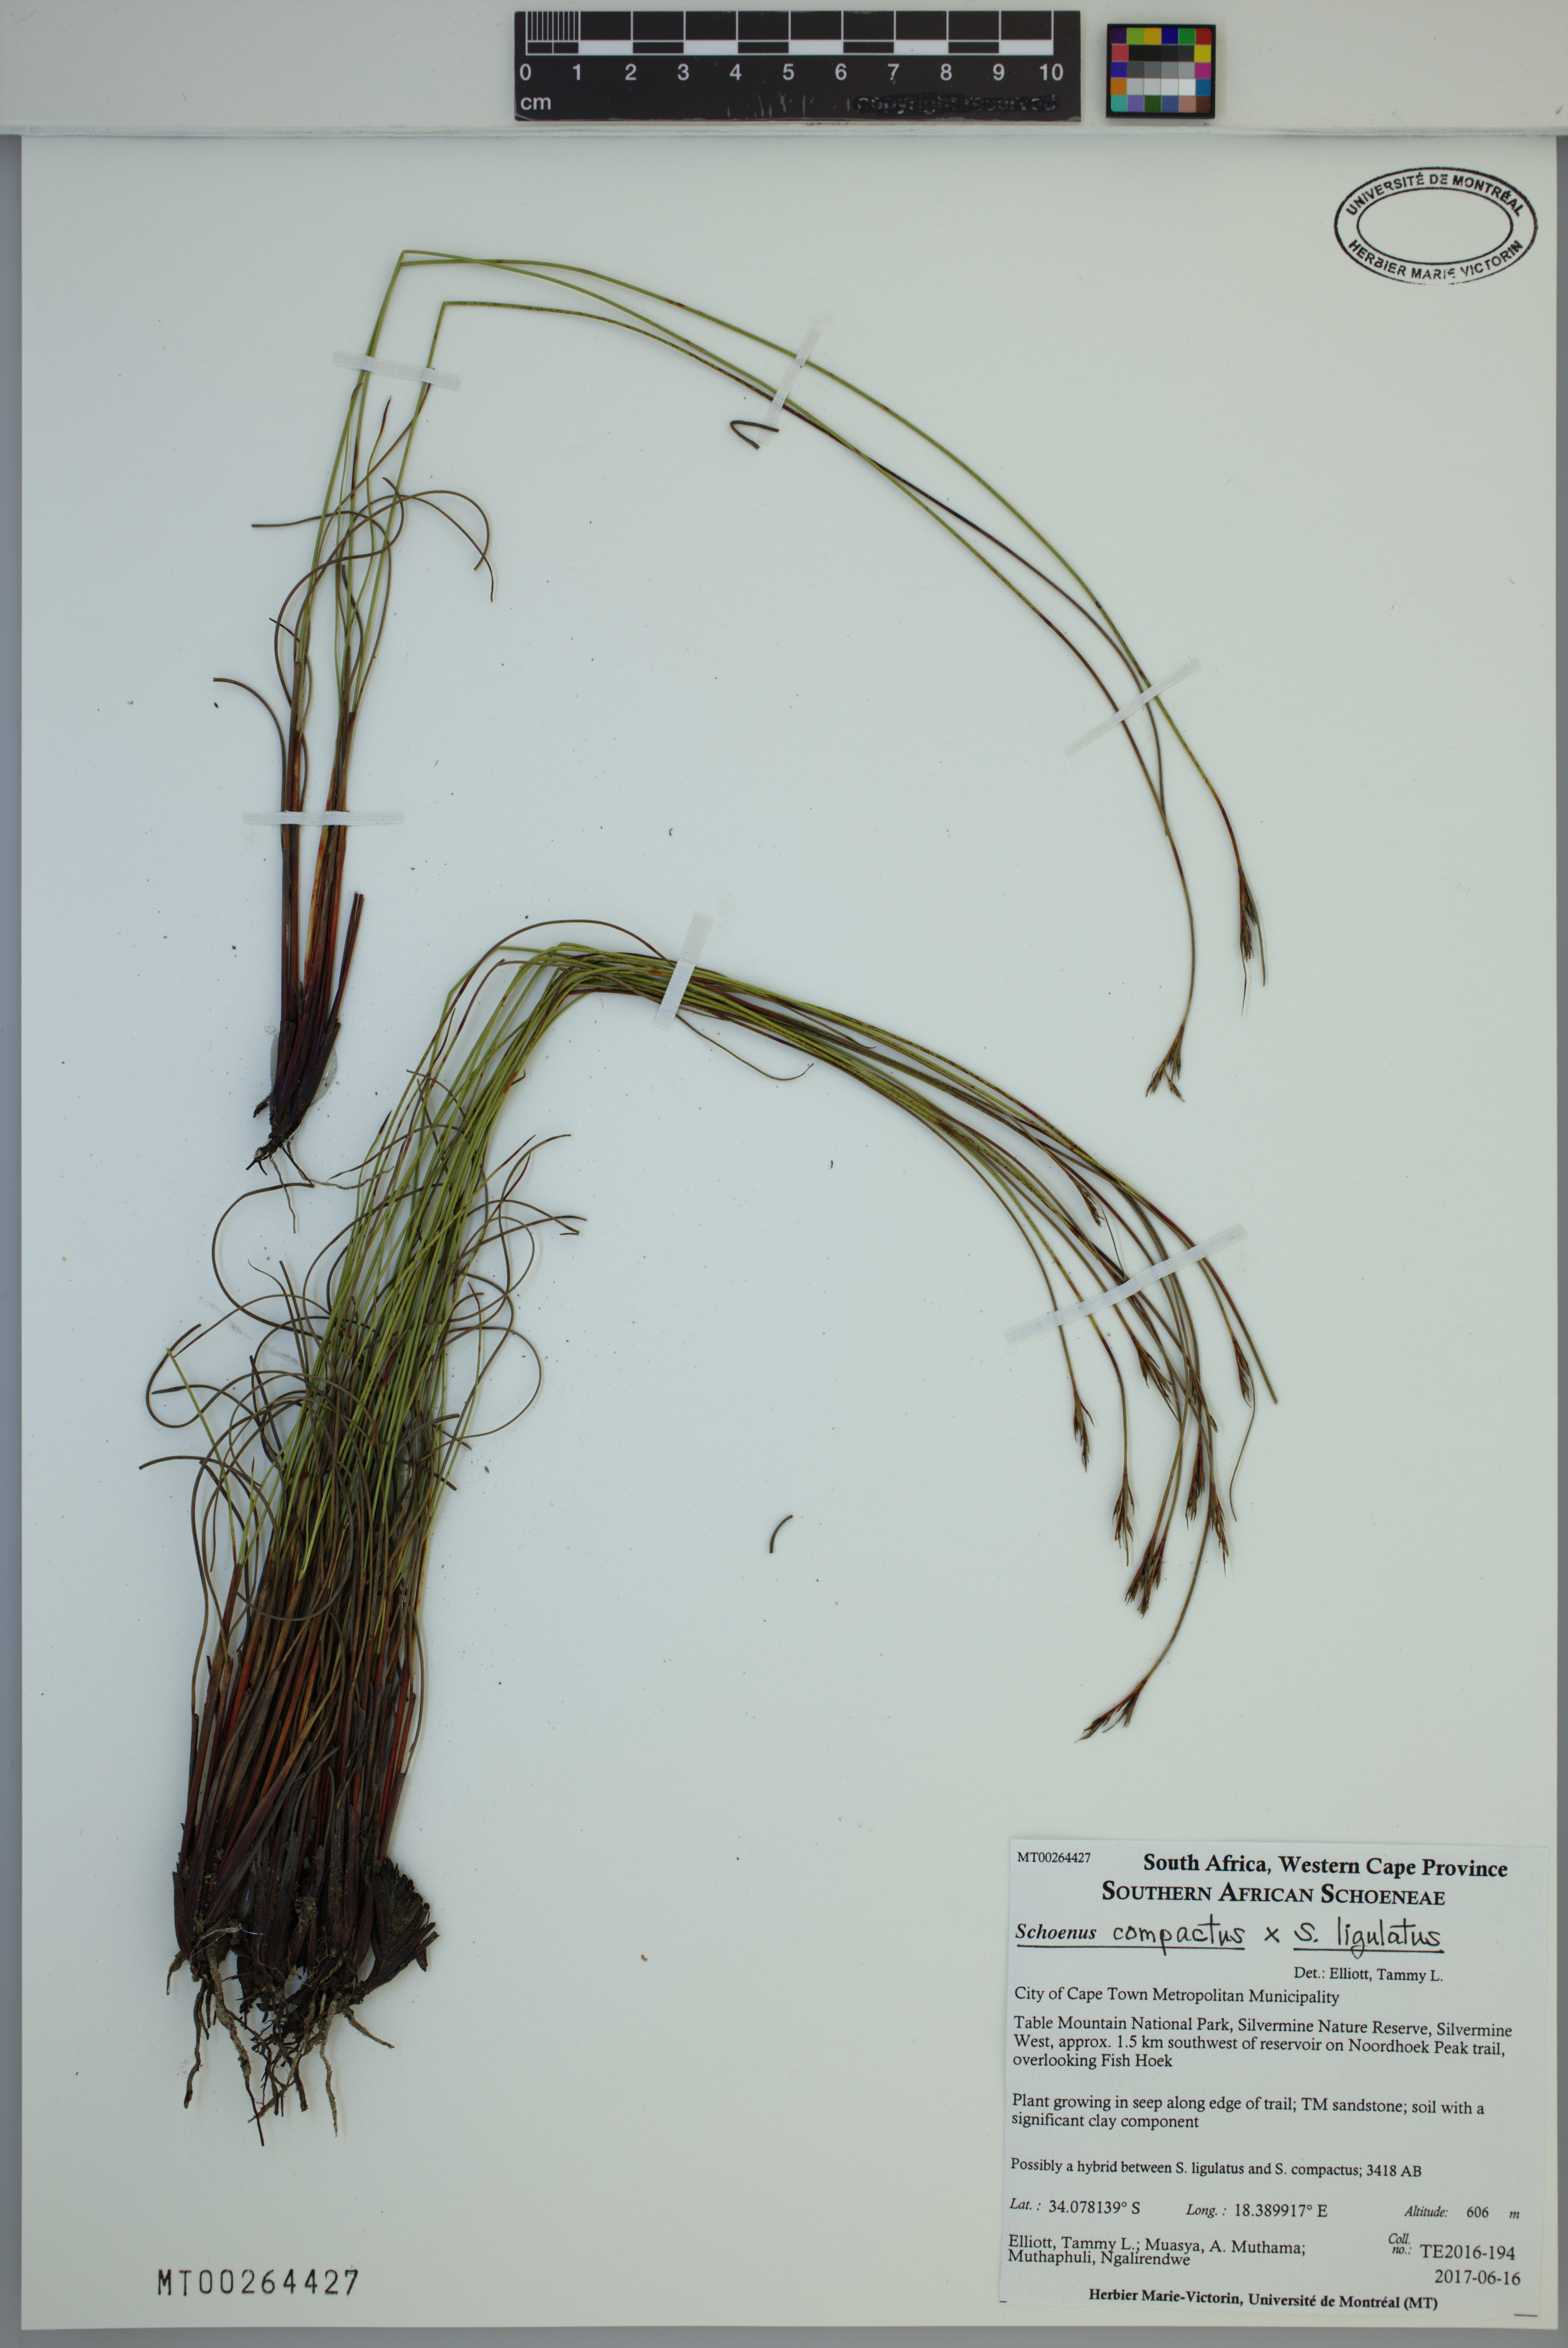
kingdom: Plantae
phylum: Tracheophyta
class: Liliopsida
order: Poales
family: Cyperaceae
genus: Schoenus
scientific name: Schoenus
